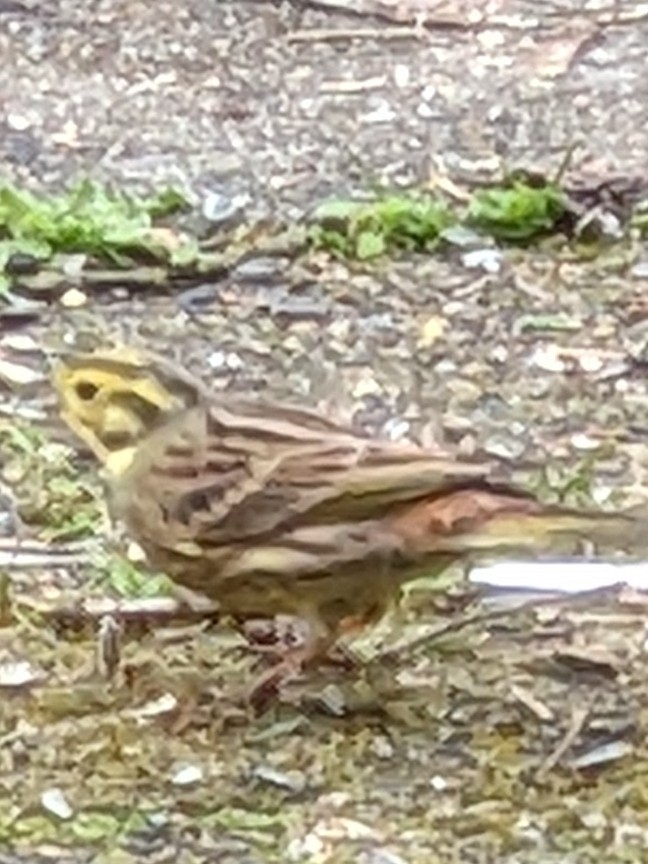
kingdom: Animalia
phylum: Chordata
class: Aves
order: Passeriformes
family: Emberizidae
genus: Emberiza
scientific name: Emberiza citrinella
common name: Gulspurv
